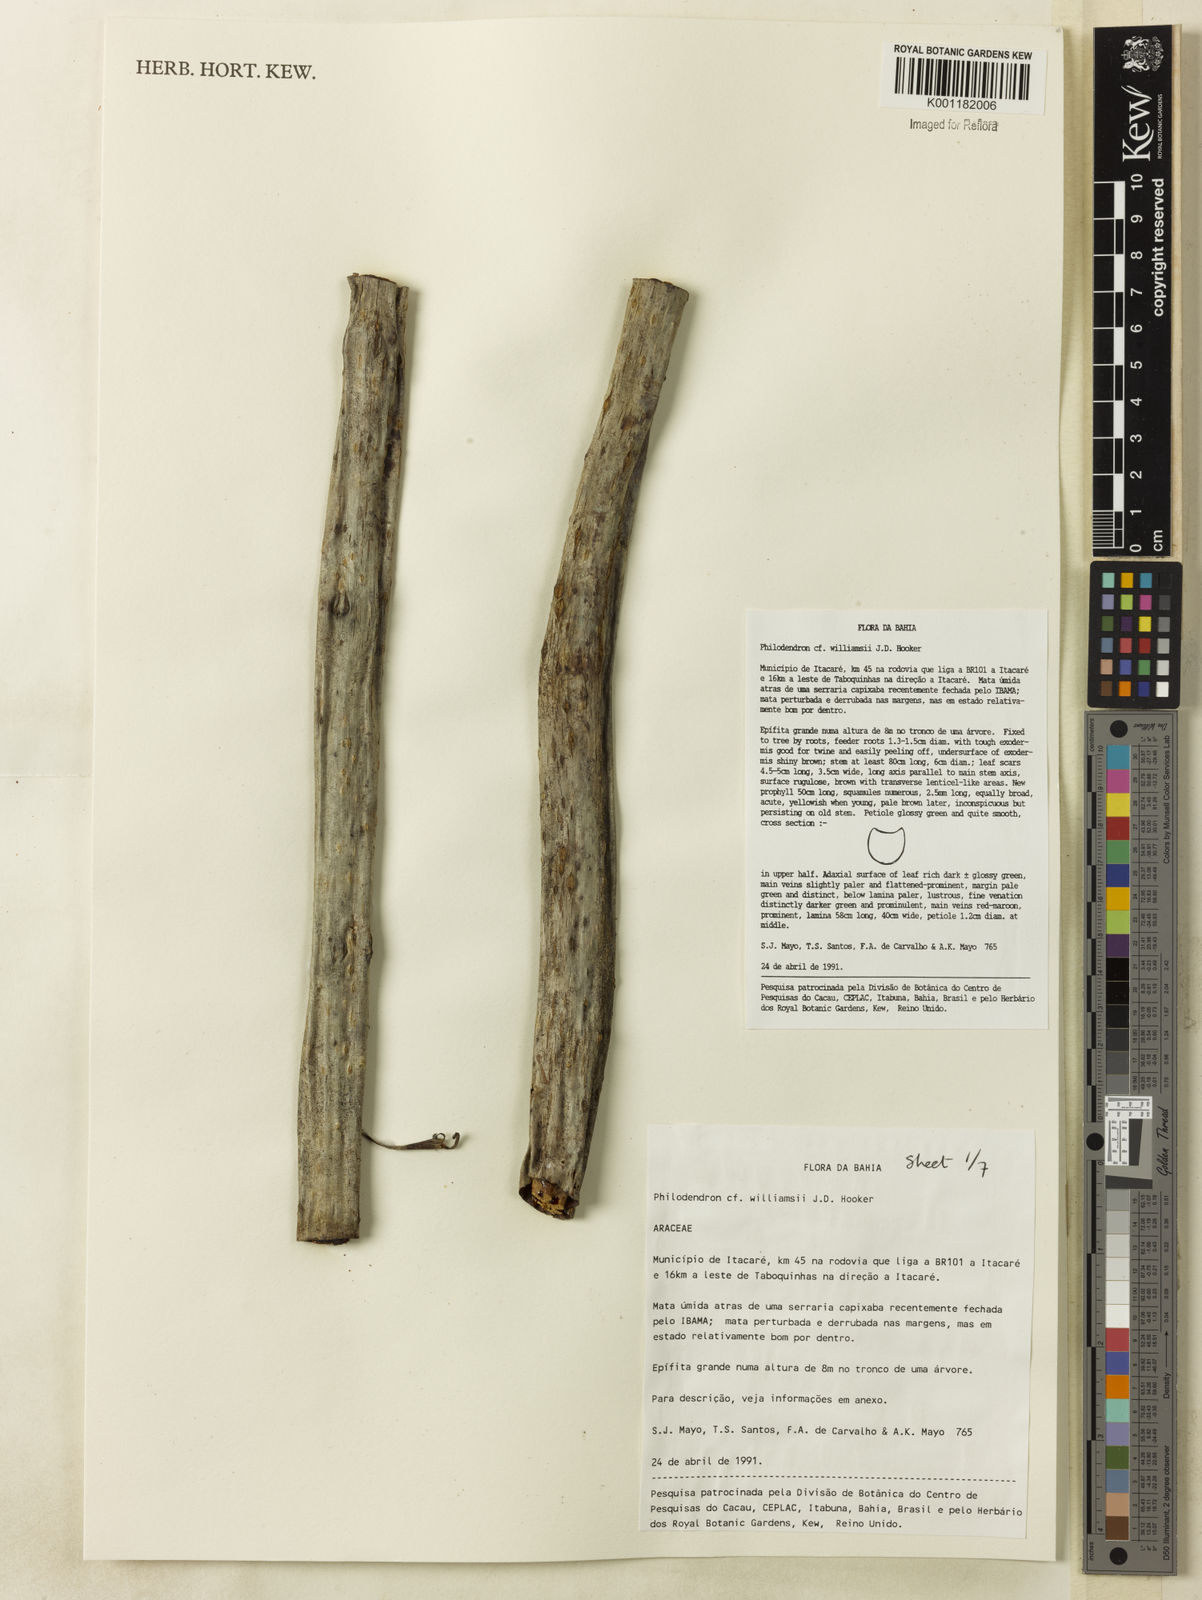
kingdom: Plantae
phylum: Tracheophyta
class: Liliopsida
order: Alismatales
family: Araceae
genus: Thaumatophyllum
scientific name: Thaumatophyllum williamsii
